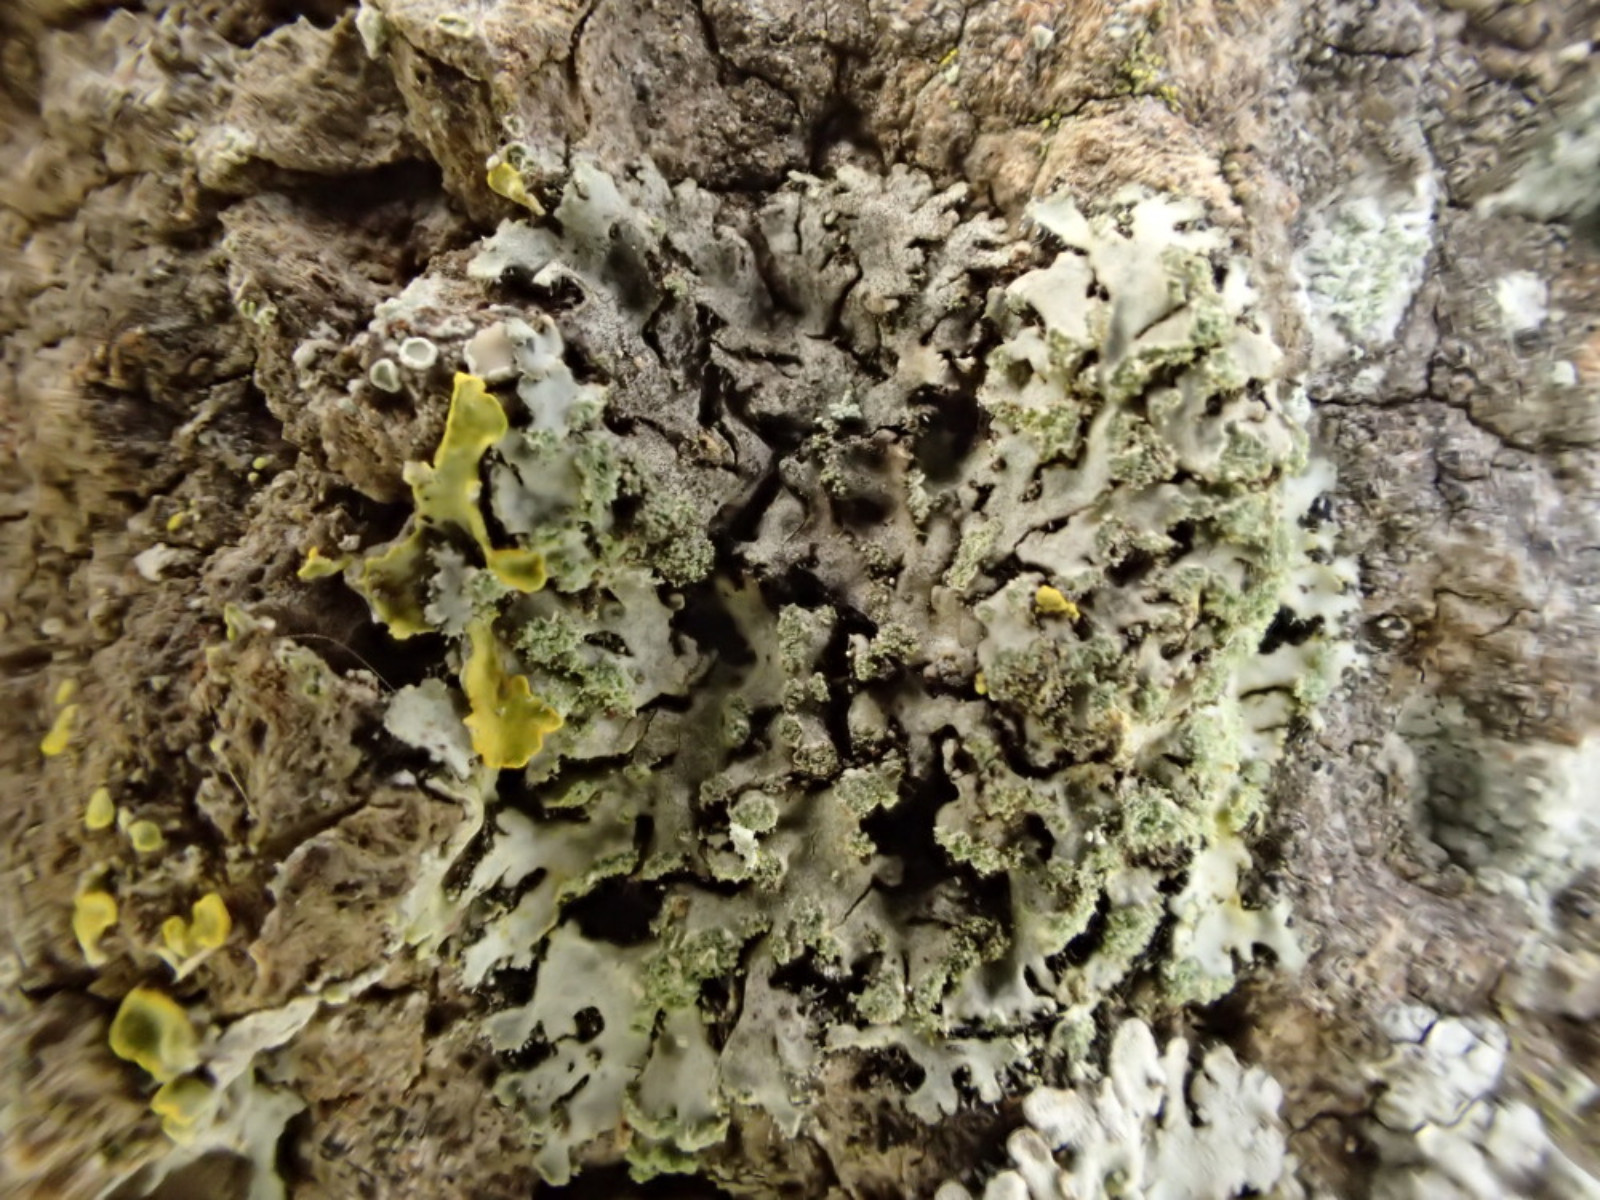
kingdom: Fungi
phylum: Ascomycota
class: Lecanoromycetes
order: Caliciales
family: Physciaceae
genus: Phaeophyscia
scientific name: Phaeophyscia orbicularis
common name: grågrøn rosetlav
